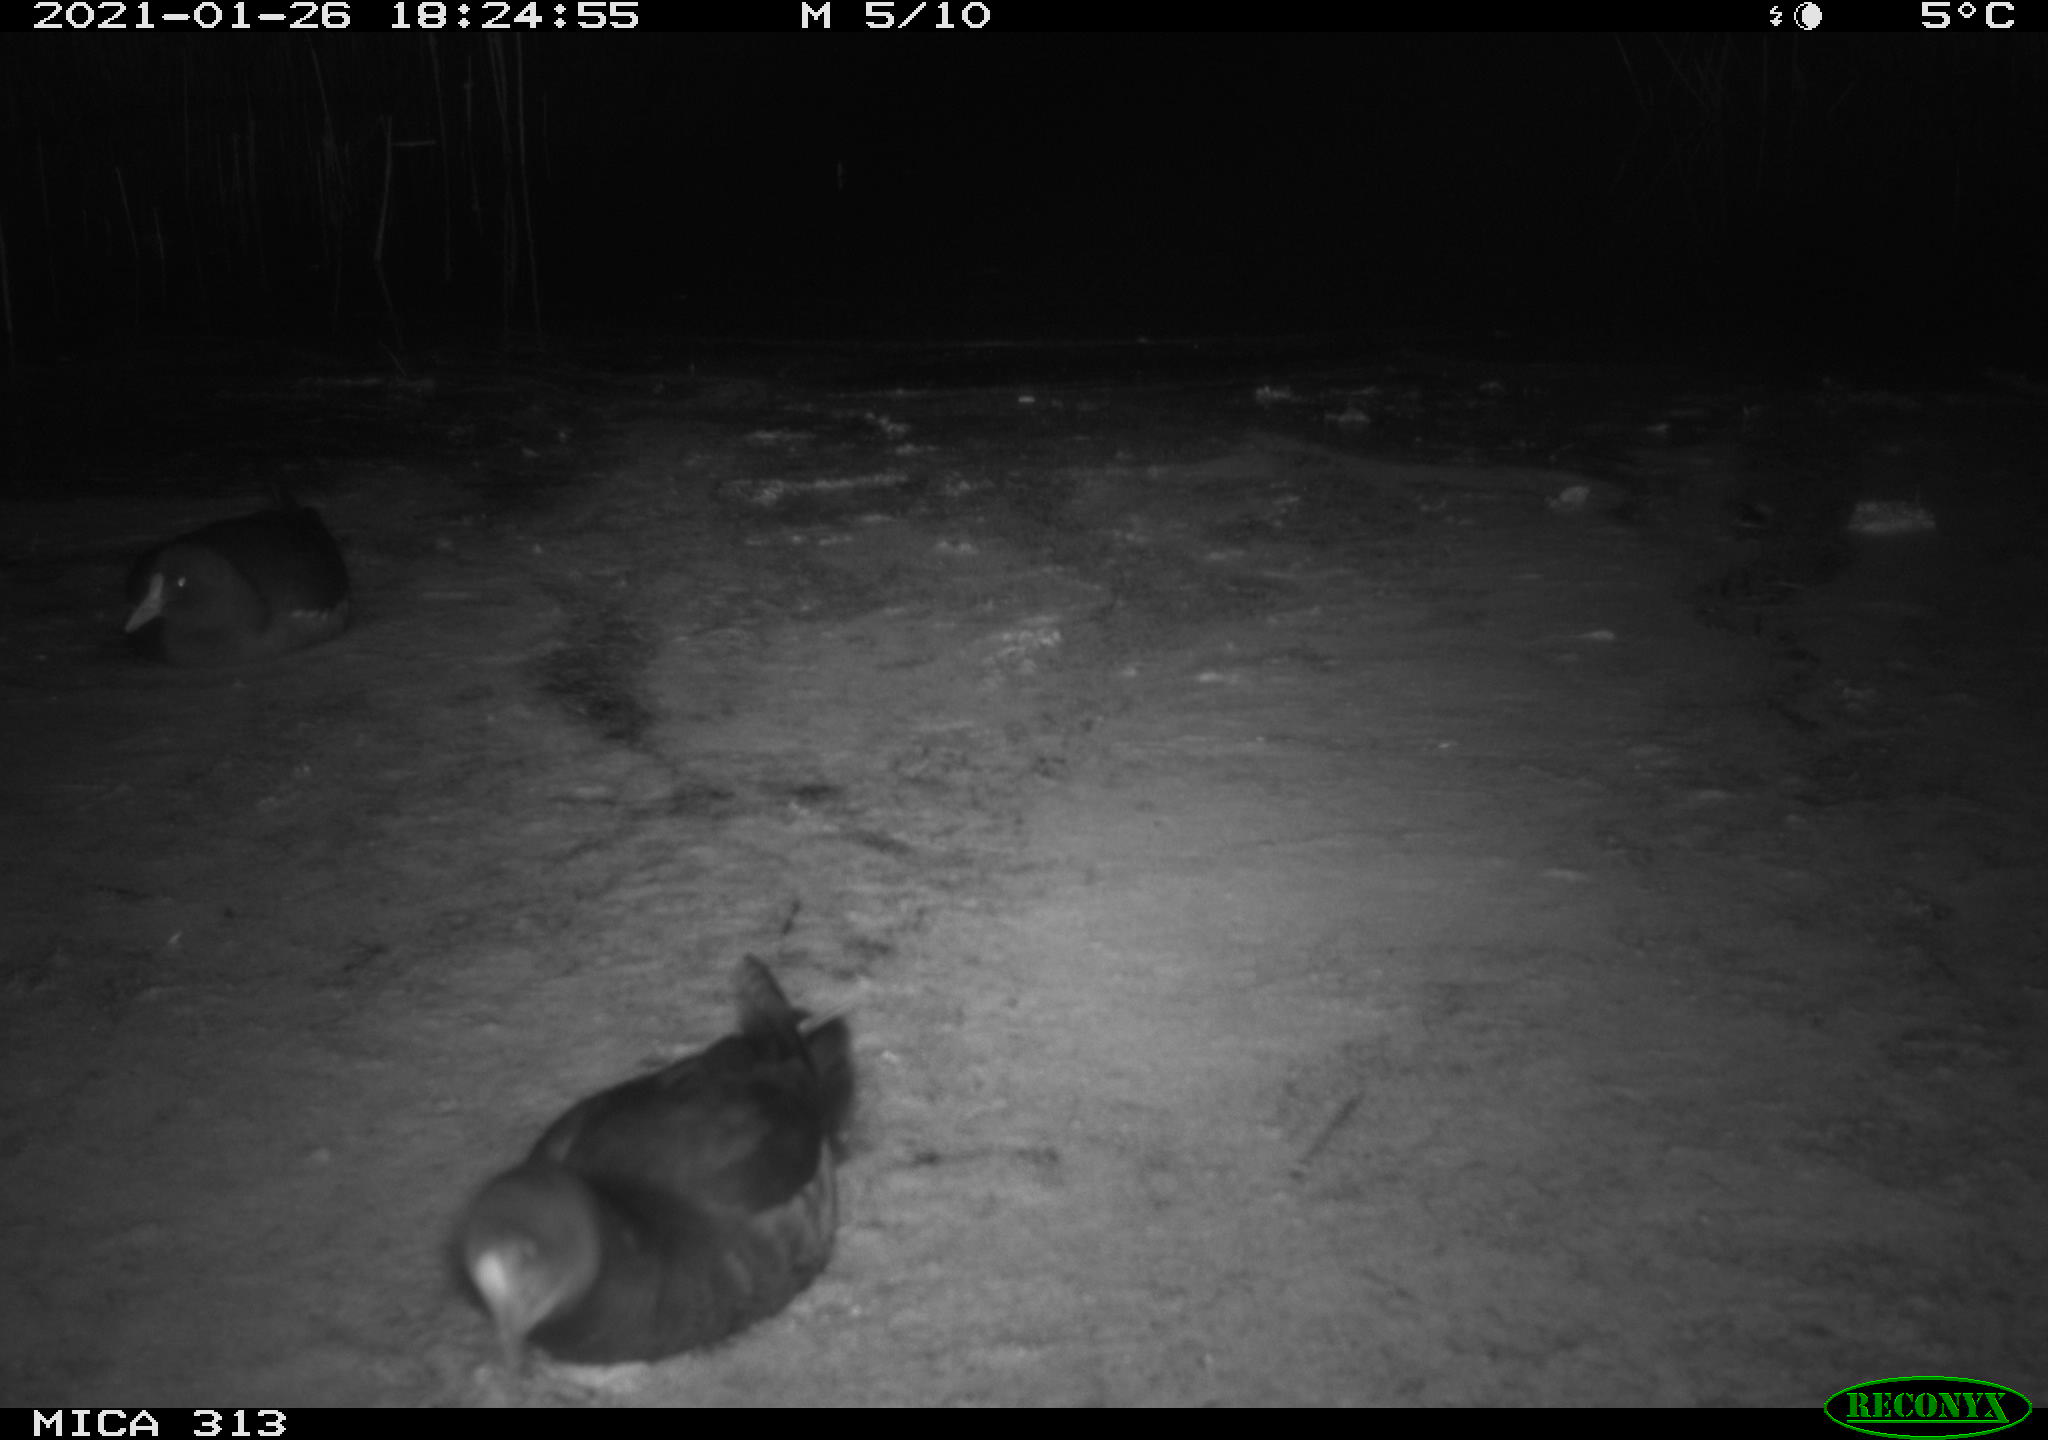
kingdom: Animalia
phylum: Chordata
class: Aves
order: Gruiformes
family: Rallidae
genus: Gallinula
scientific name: Gallinula chloropus
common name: Common moorhen
